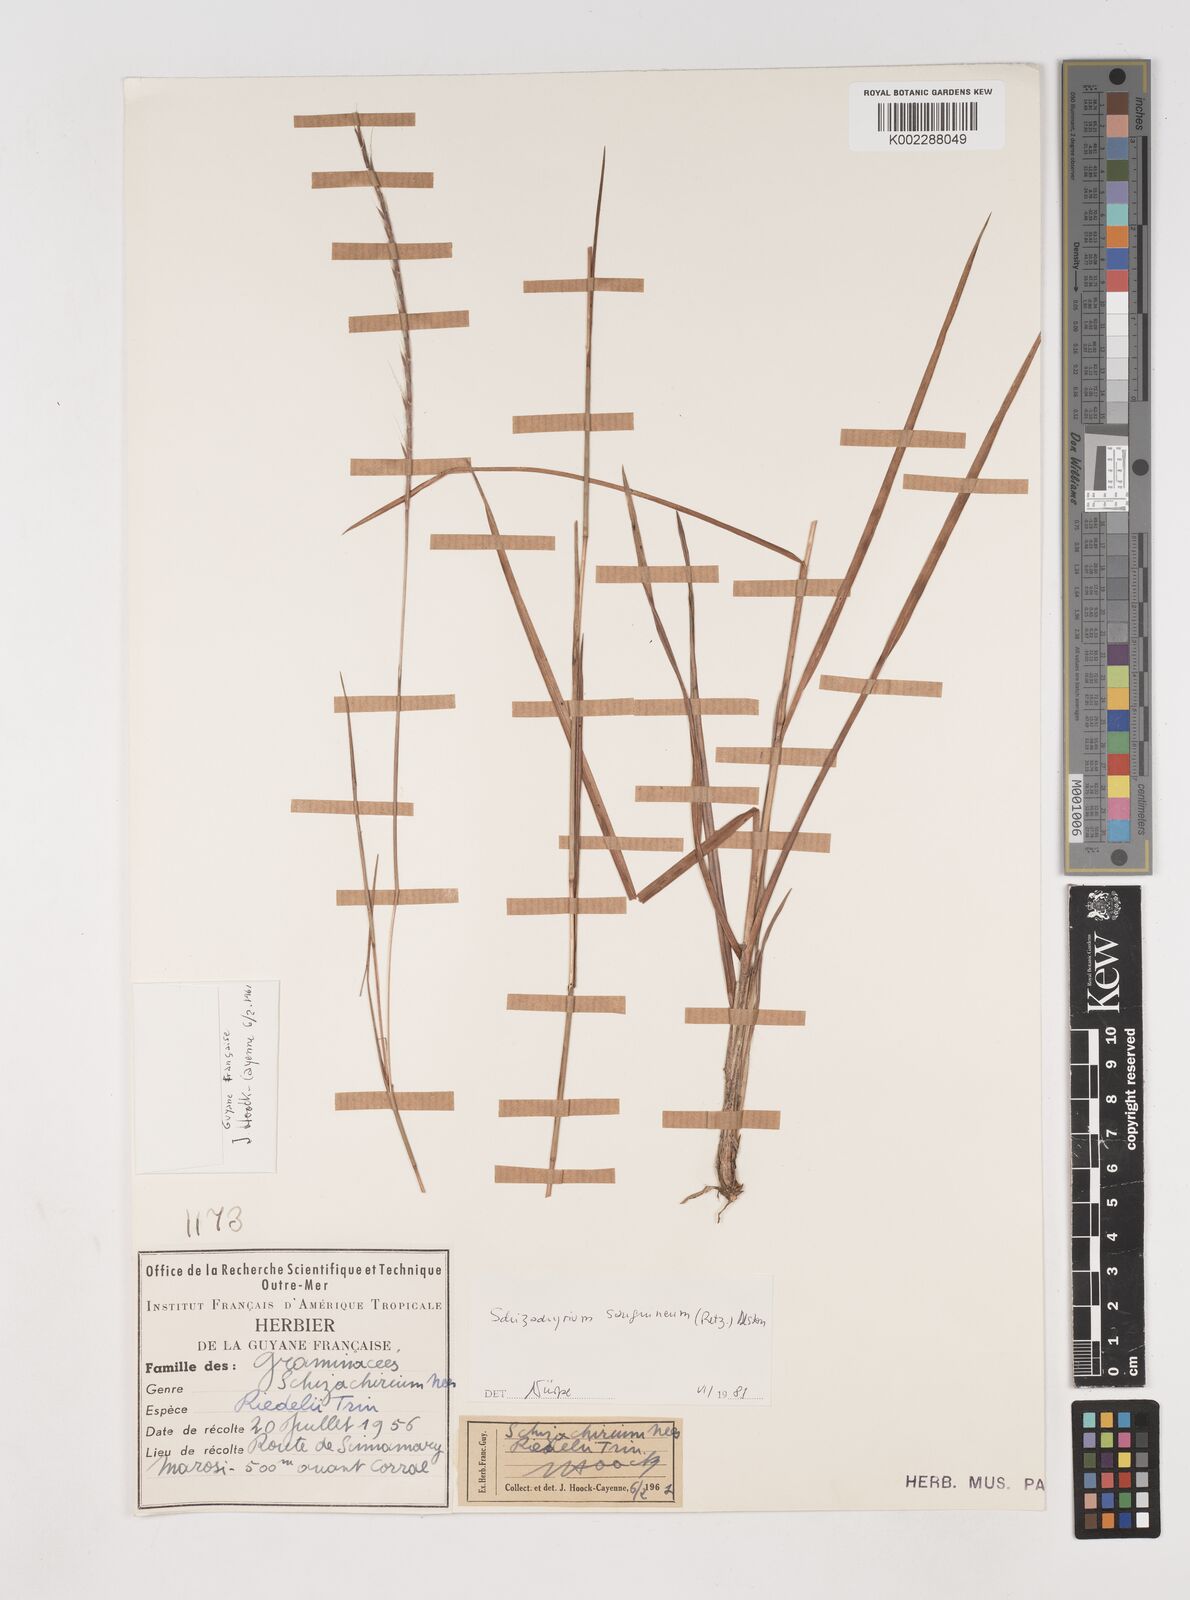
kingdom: Plantae
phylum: Tracheophyta
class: Liliopsida
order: Poales
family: Poaceae
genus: Schizachyrium
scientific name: Schizachyrium sanguineum
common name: Crimson bluestem
